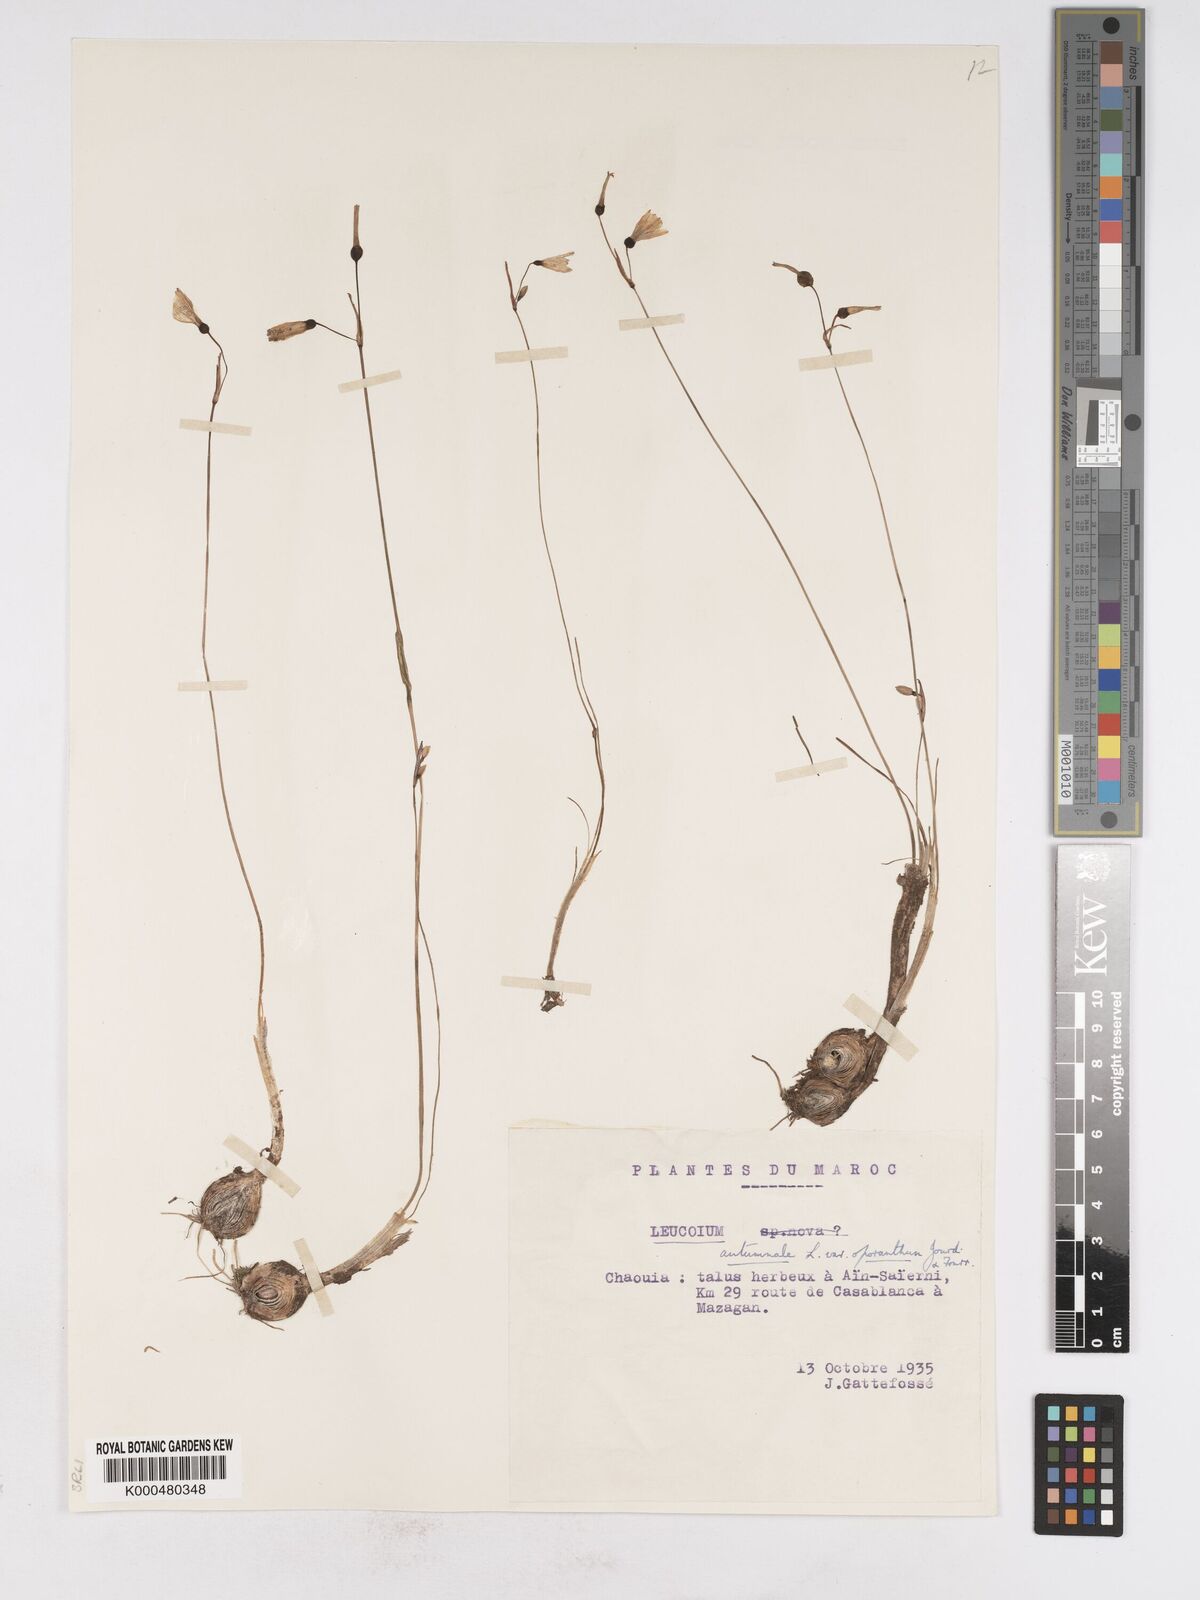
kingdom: Plantae
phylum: Tracheophyta
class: Liliopsida
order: Asparagales
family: Amaryllidaceae
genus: Leucojum
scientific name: Leucojum
